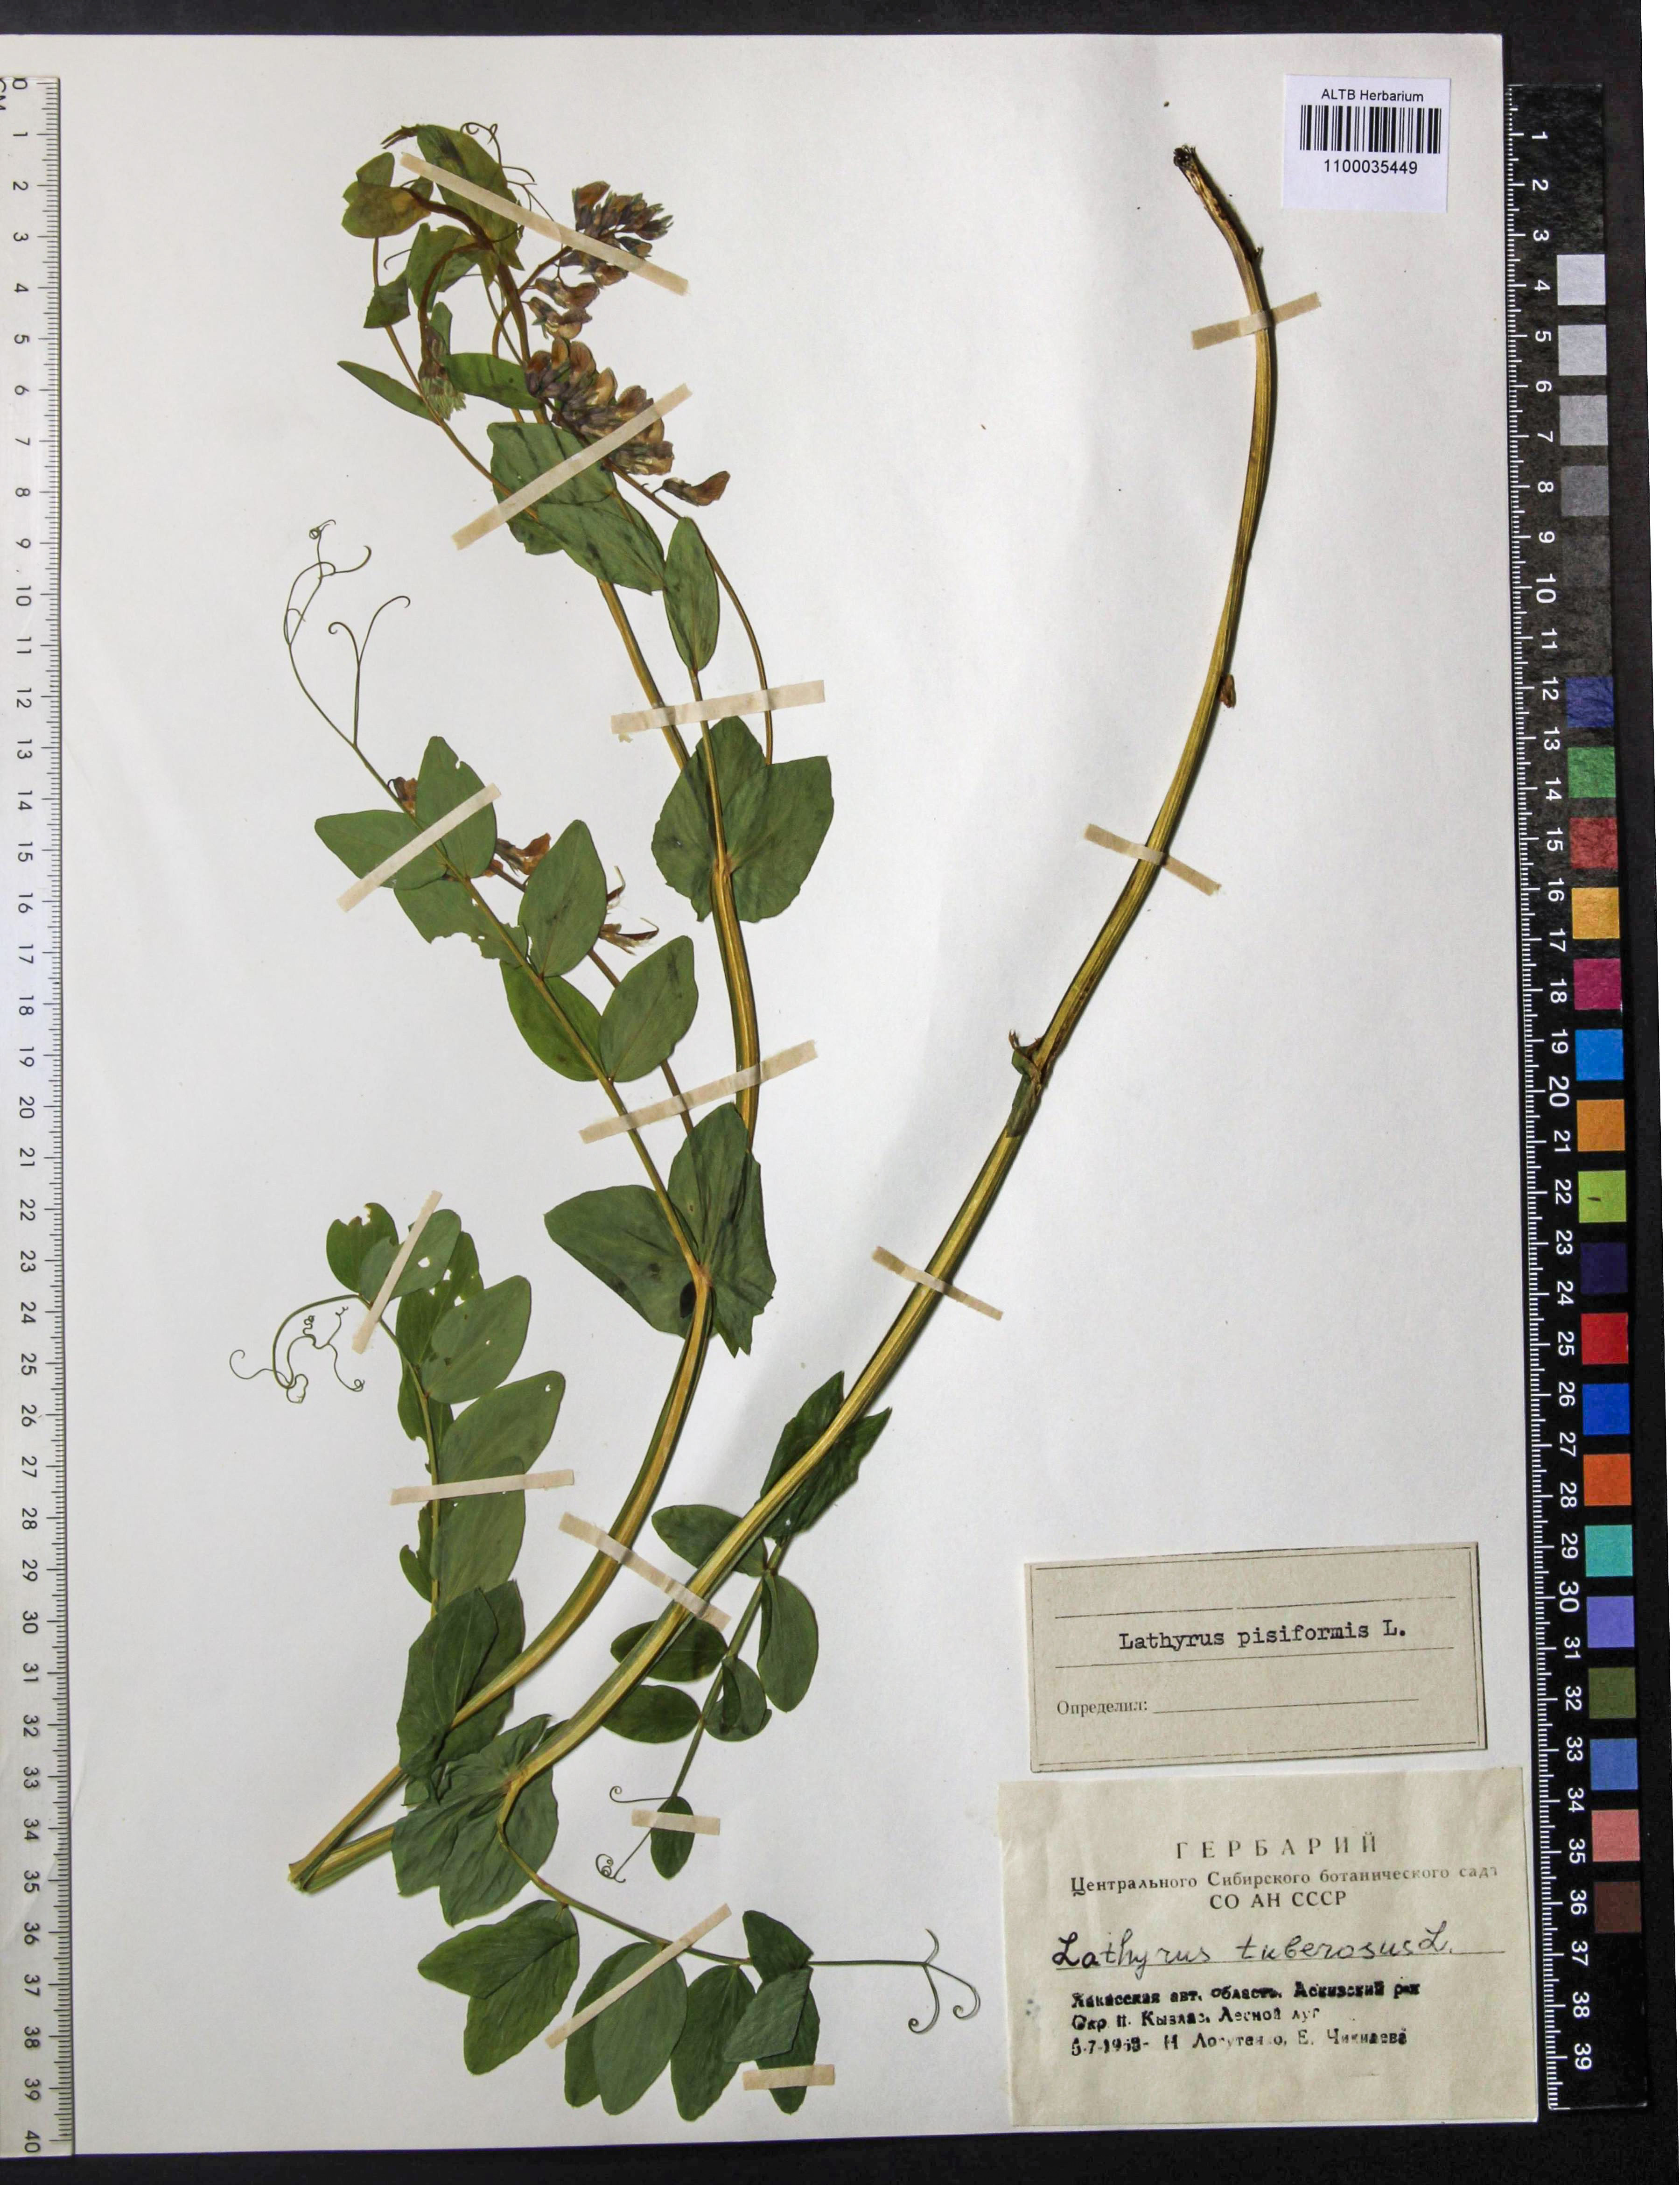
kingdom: Plantae
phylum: Tracheophyta
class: Magnoliopsida
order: Fabales
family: Fabaceae
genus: Lathyrus
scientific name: Lathyrus pisiformis
